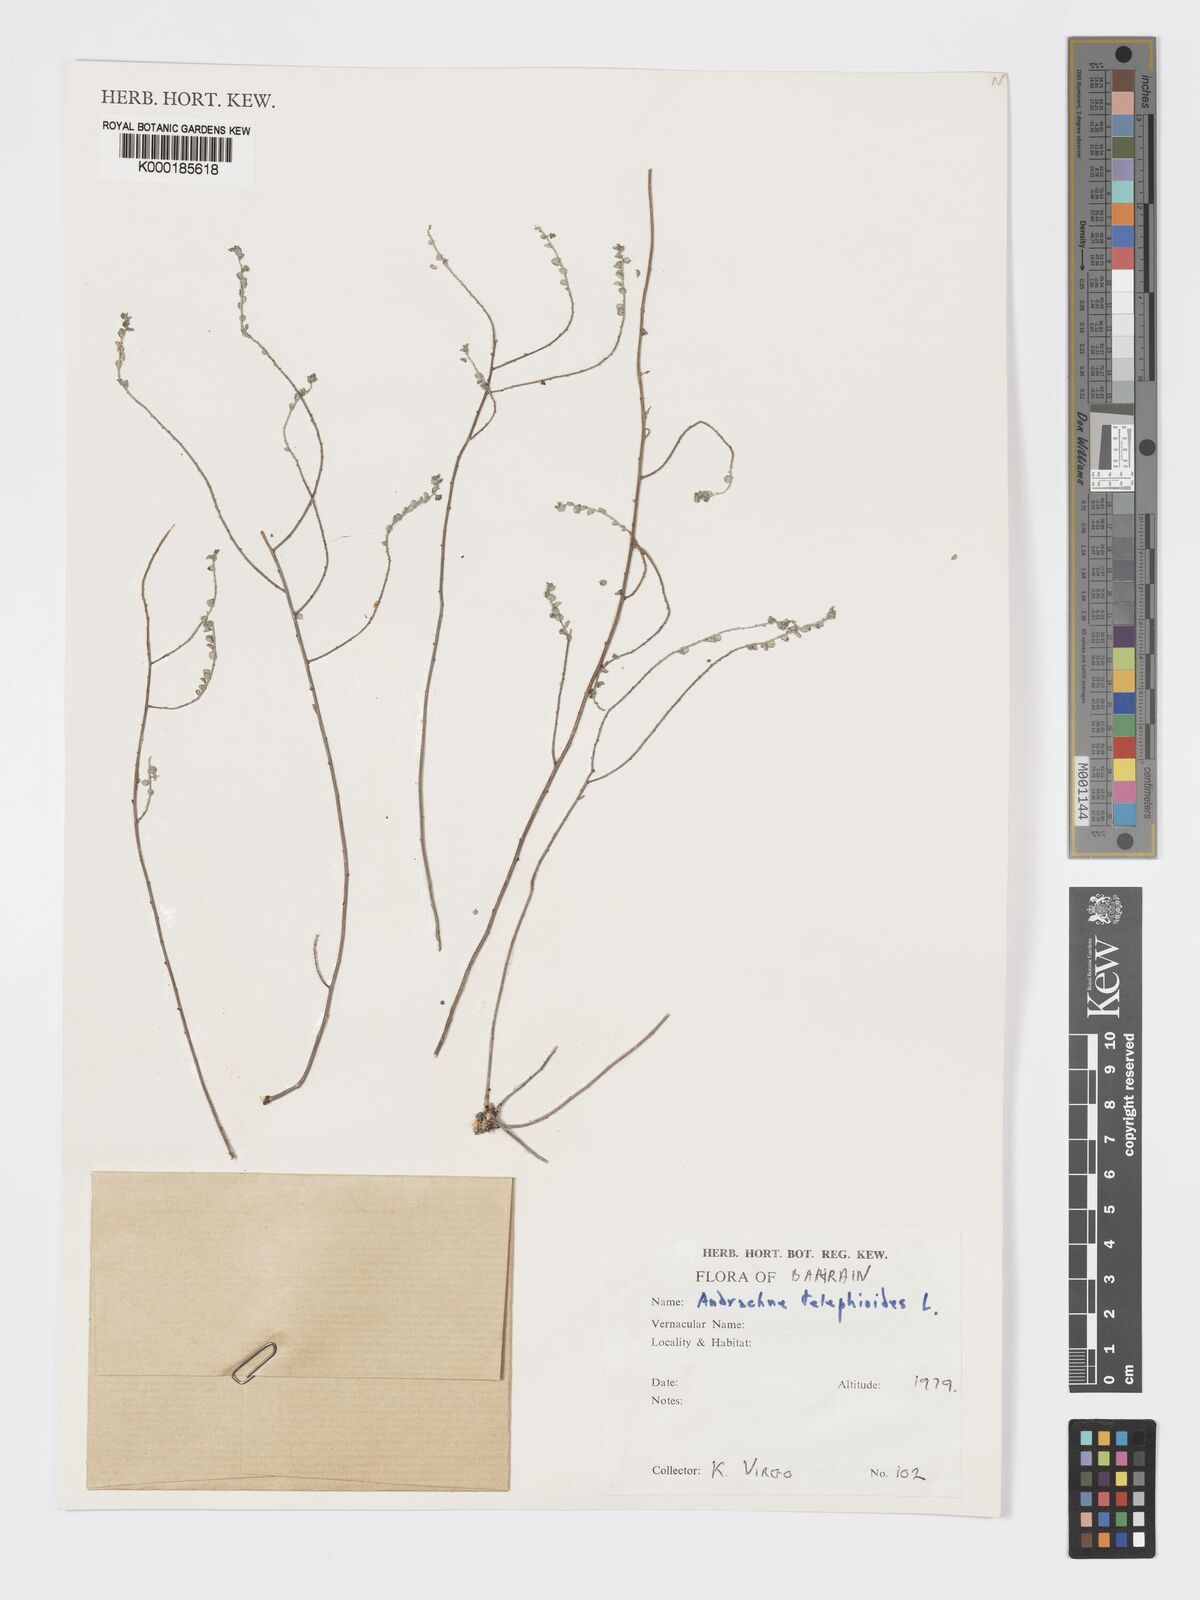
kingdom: Plantae
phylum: Tracheophyta
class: Magnoliopsida
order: Malpighiales
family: Phyllanthaceae
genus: Andrachne
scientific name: Andrachne telephioides
